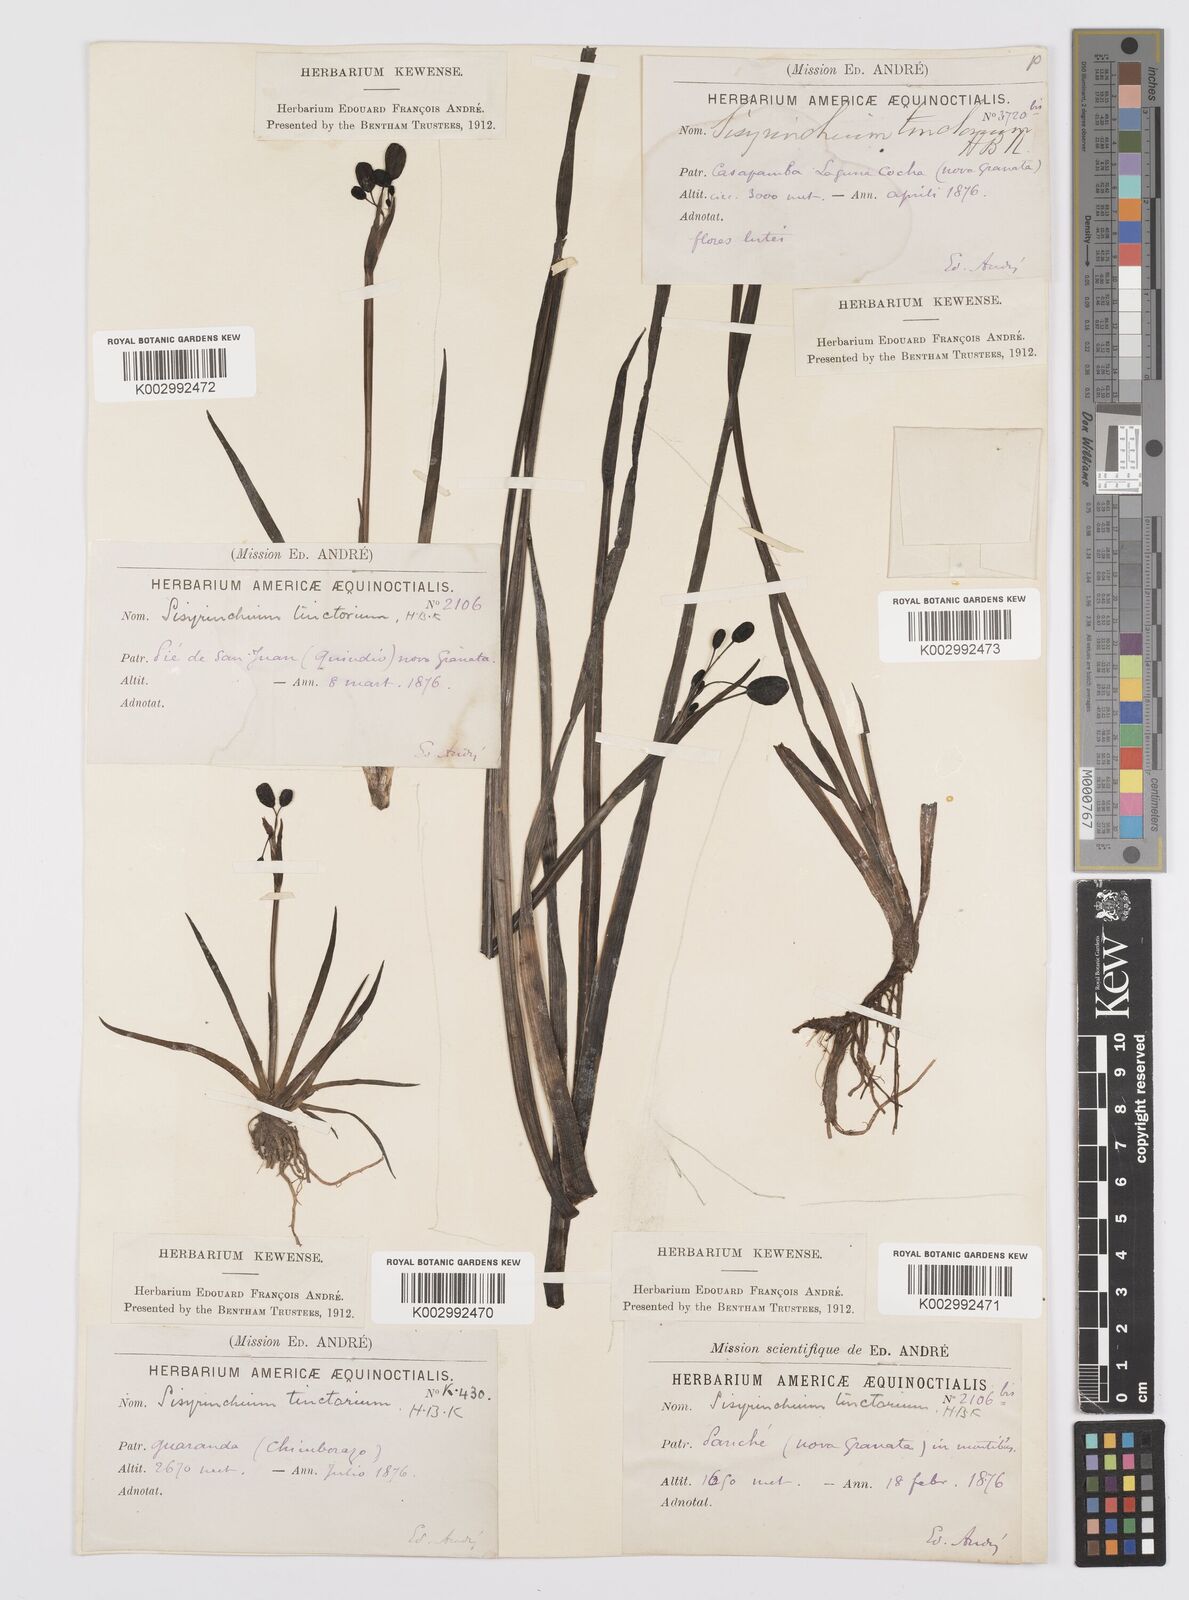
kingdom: Plantae
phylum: Tracheophyta
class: Liliopsida
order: Asparagales
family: Iridaceae
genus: Sisyrinchium
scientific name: Sisyrinchium tinctorium
